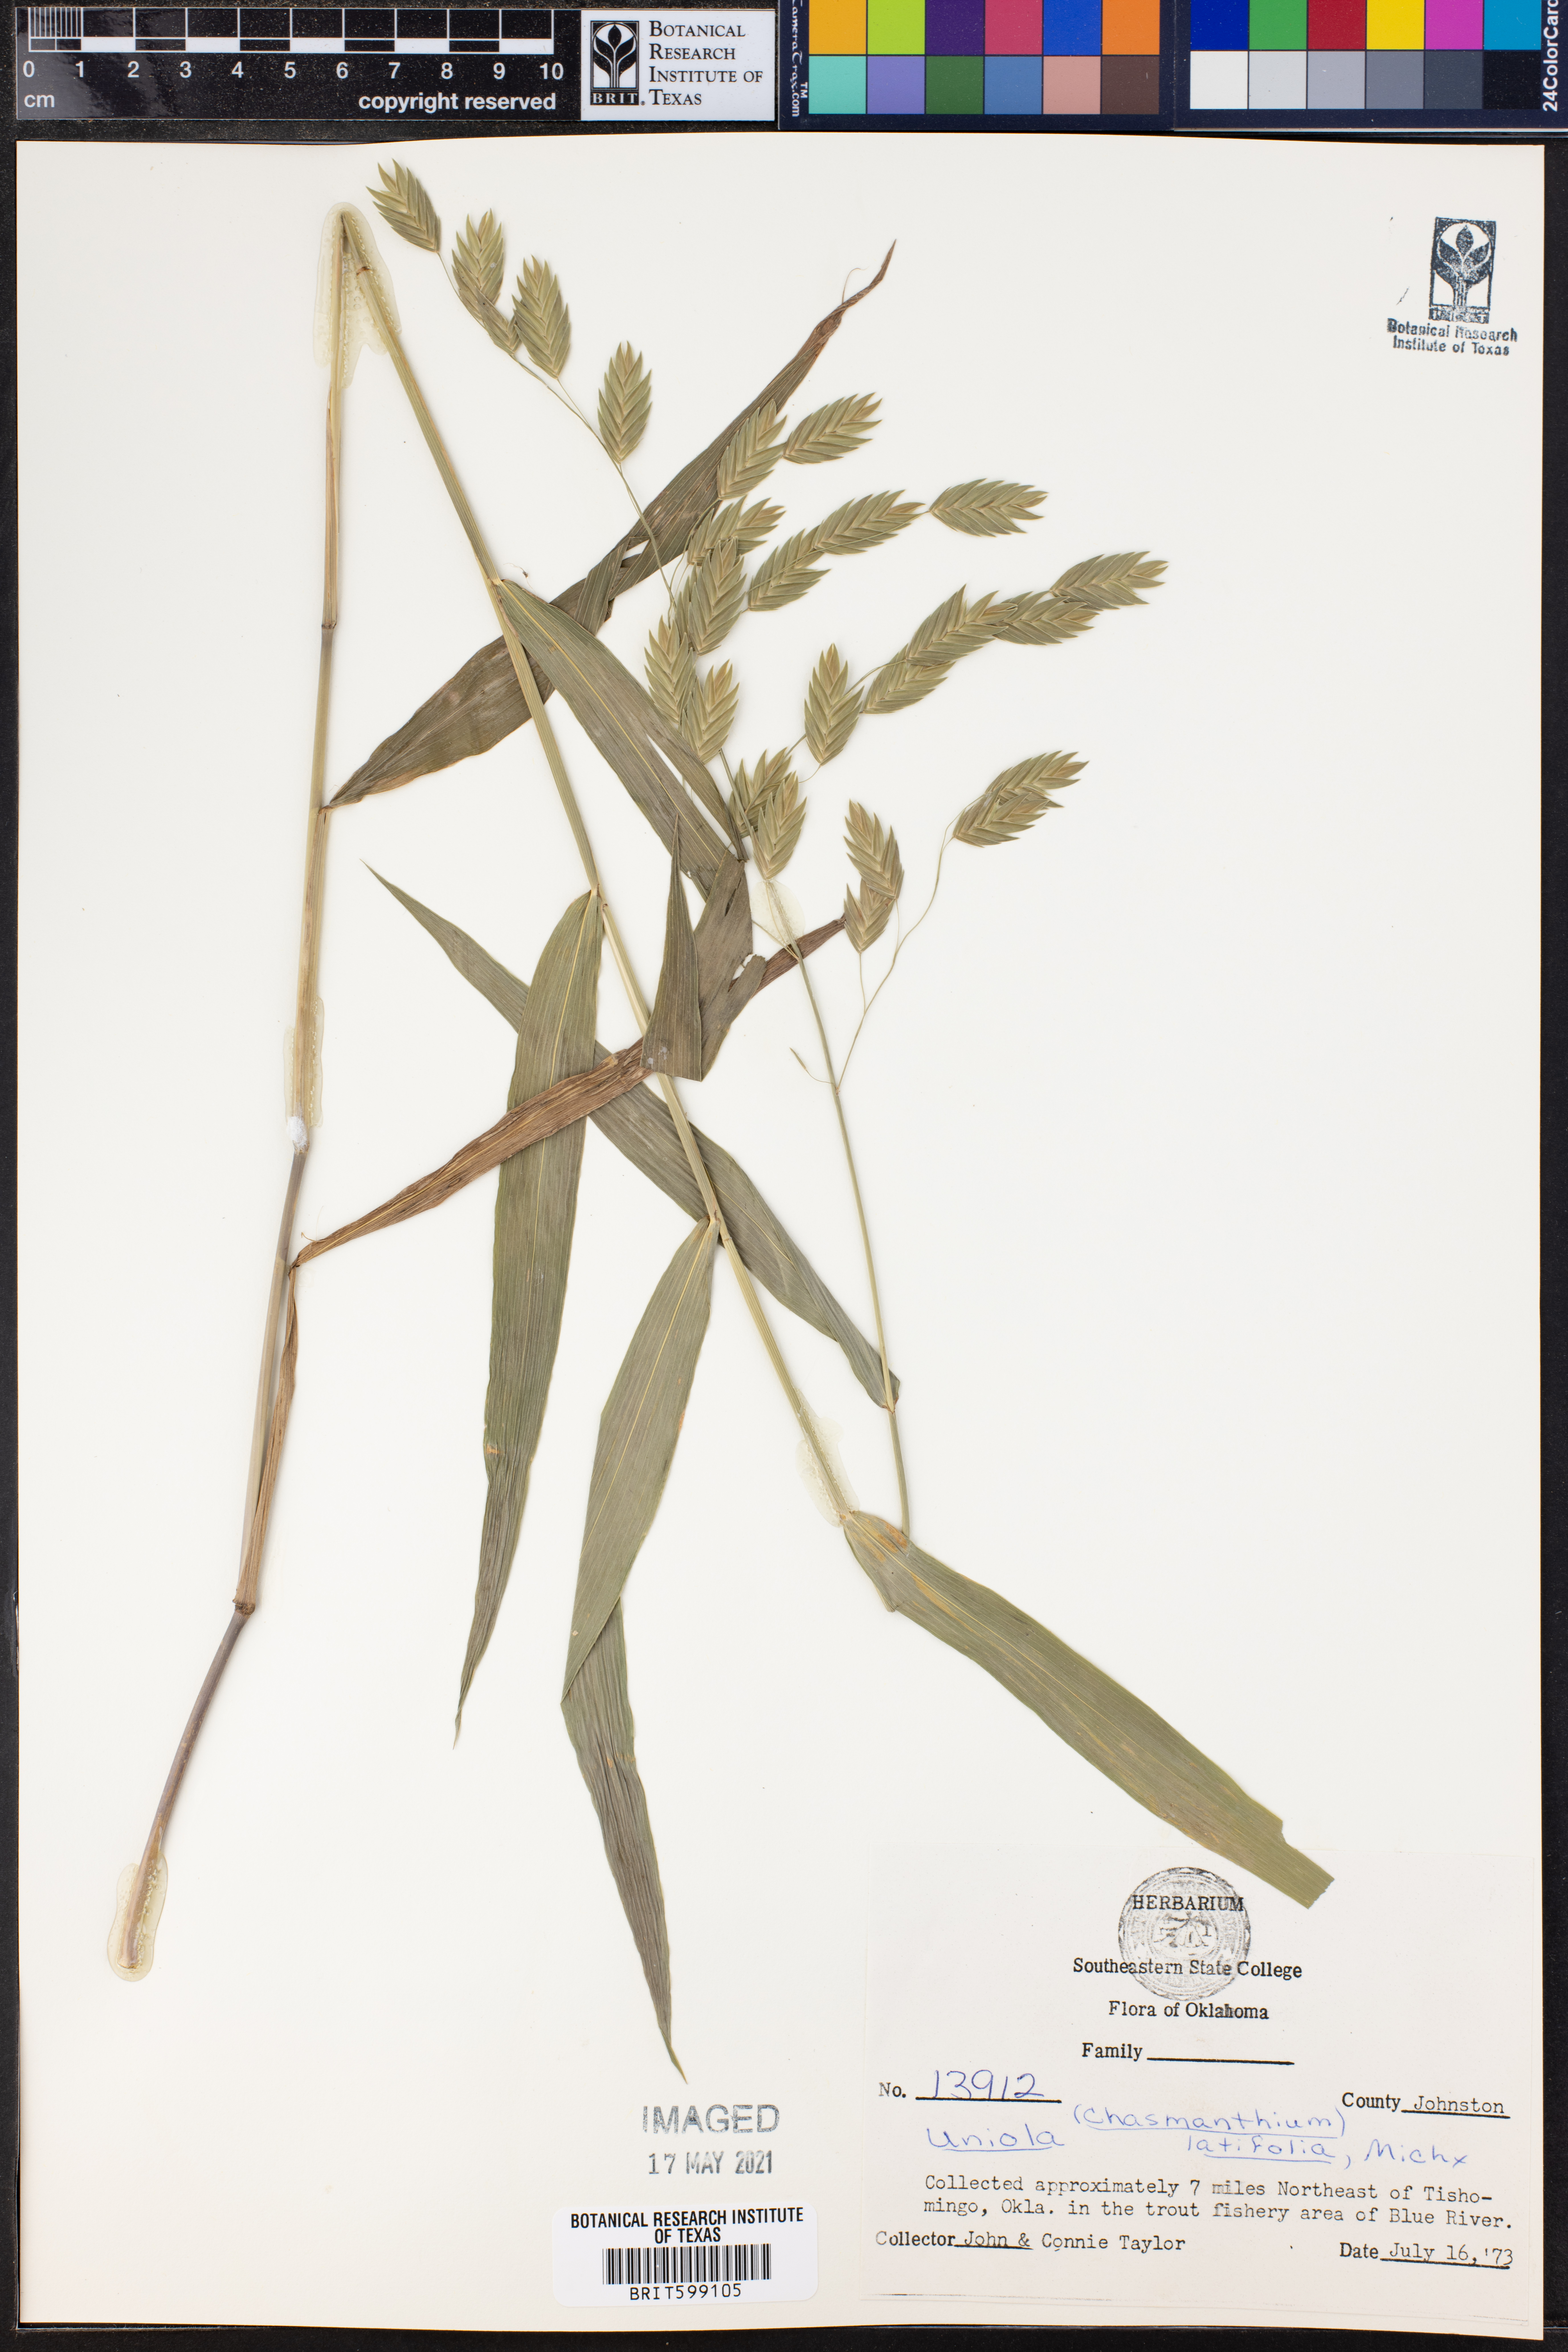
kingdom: Plantae
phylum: Tracheophyta
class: Liliopsida
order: Poales
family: Poaceae
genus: Chasmanthium
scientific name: Chasmanthium latifolium
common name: Broad-leaved chasmanthium
